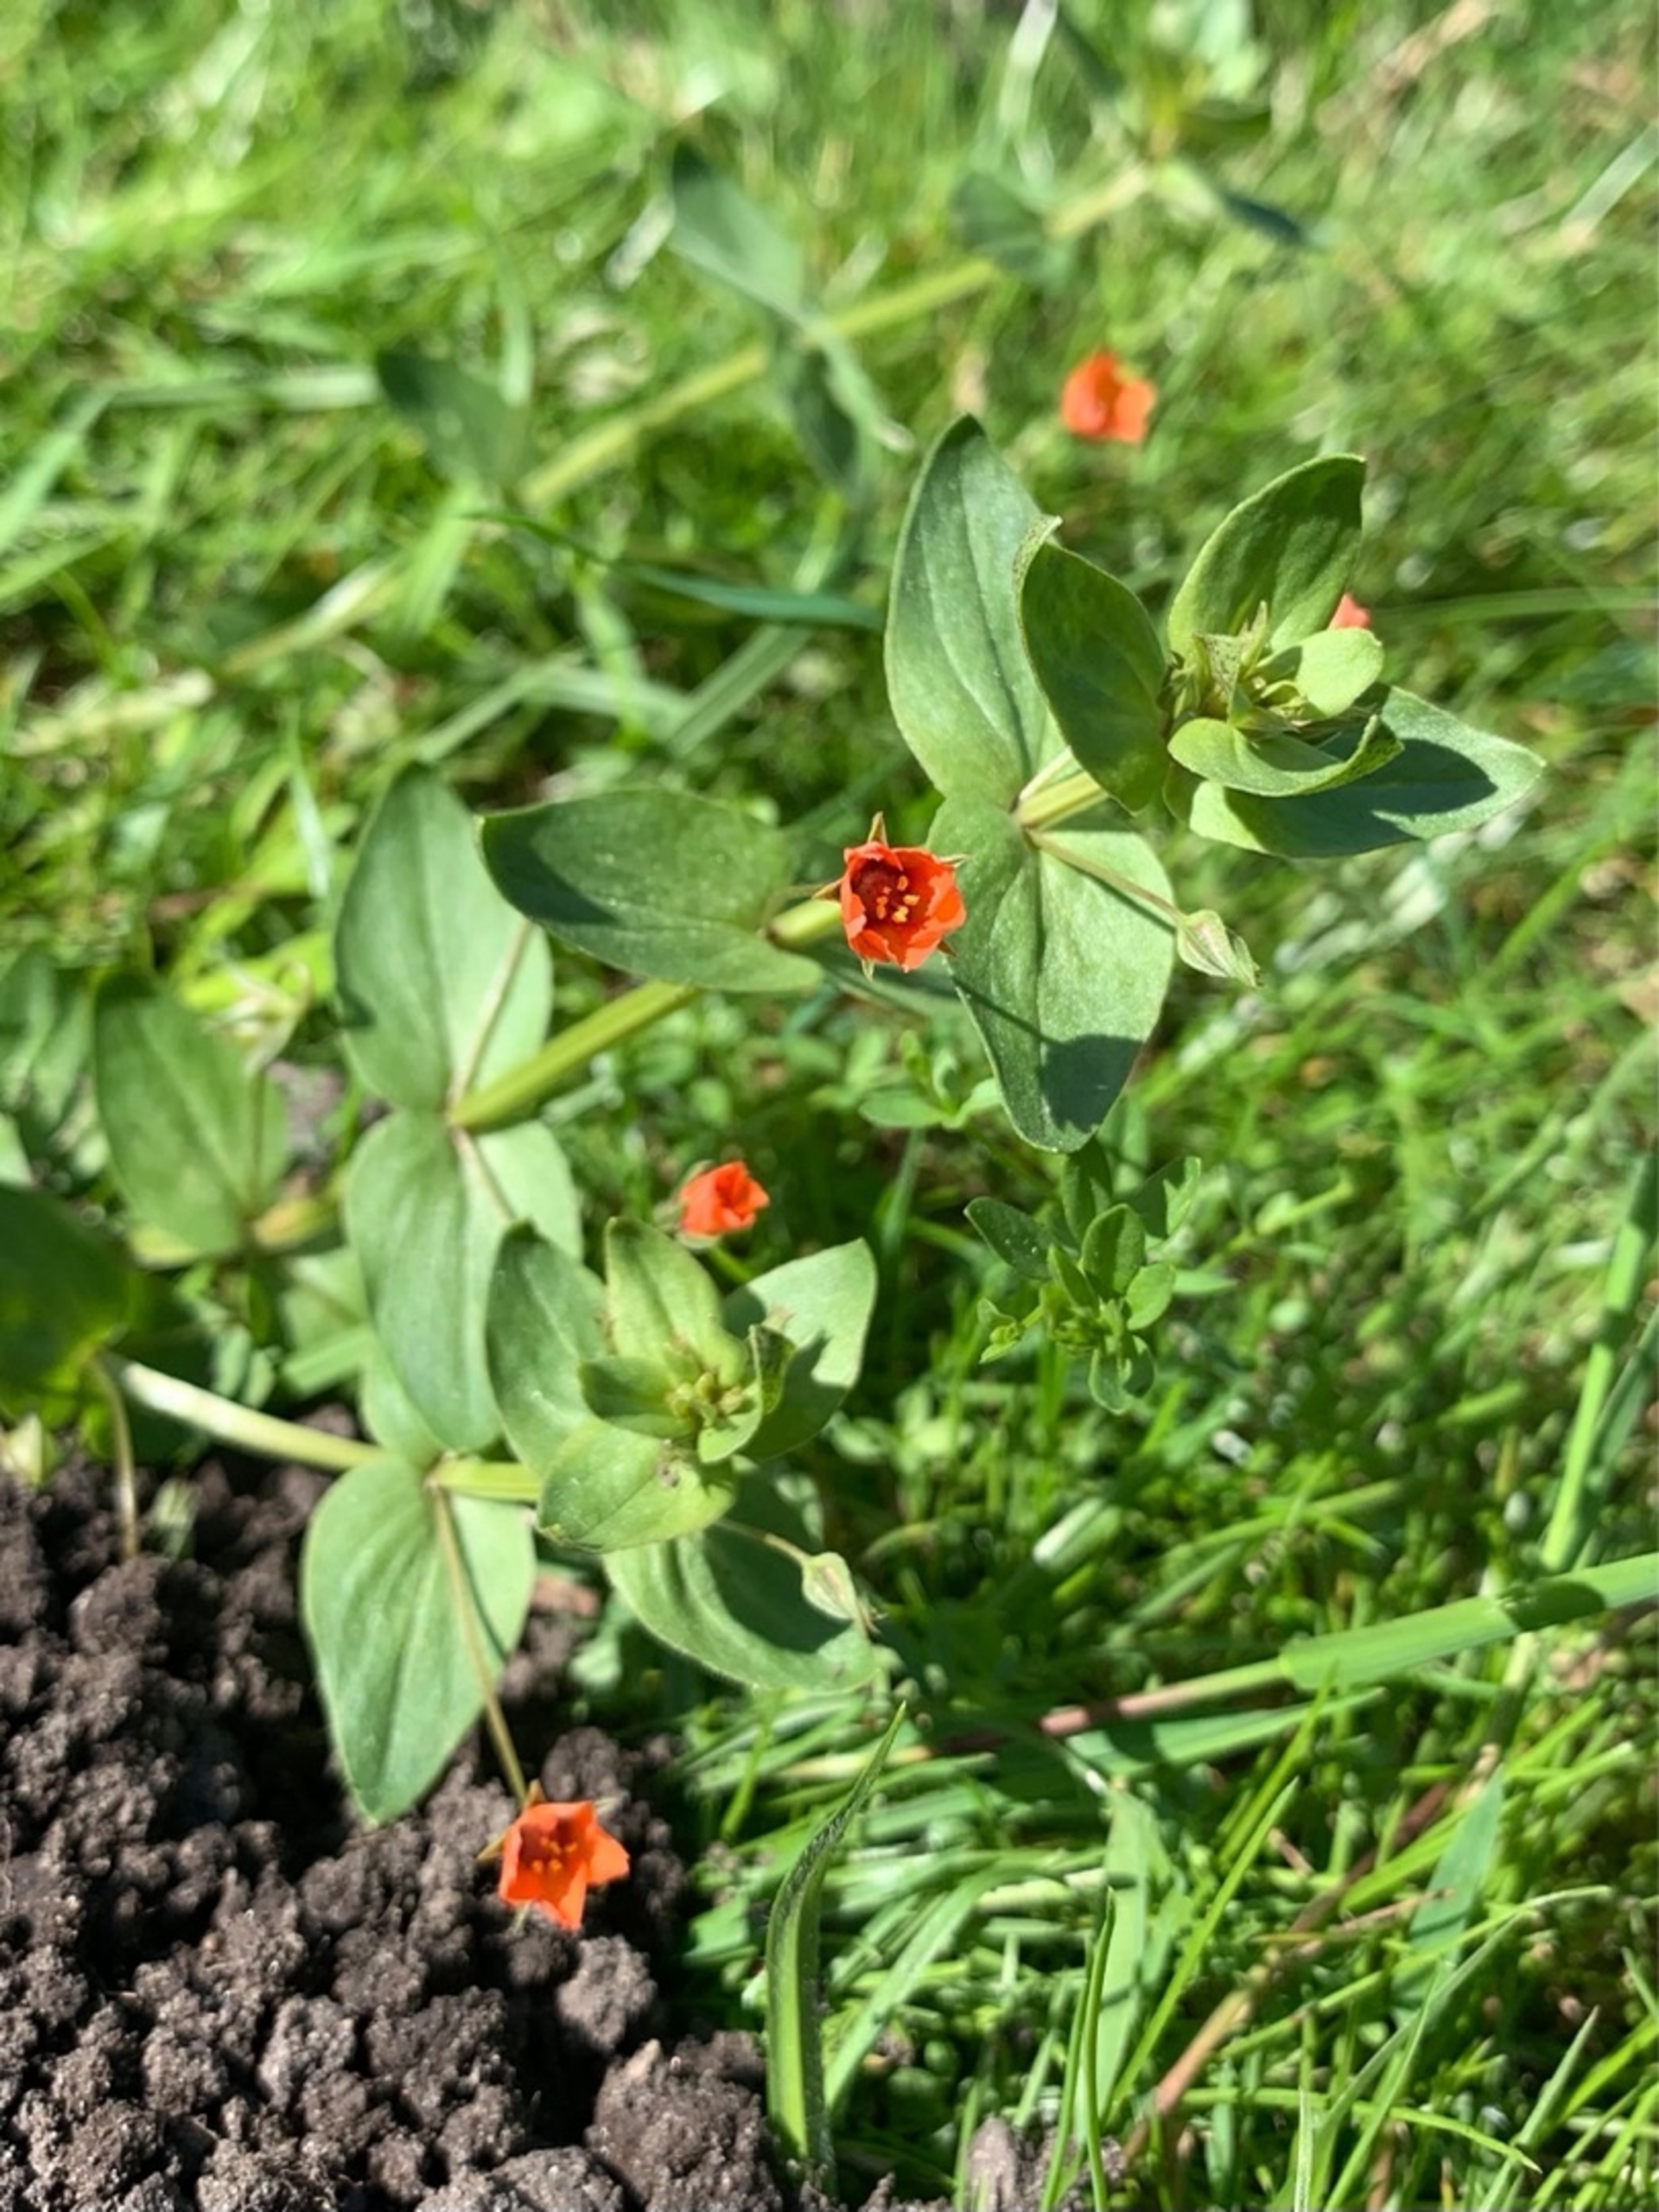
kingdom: Plantae
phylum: Tracheophyta
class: Magnoliopsida
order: Ericales
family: Primulaceae
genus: Lysimachia
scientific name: Lysimachia arvensis
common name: Rød arve
